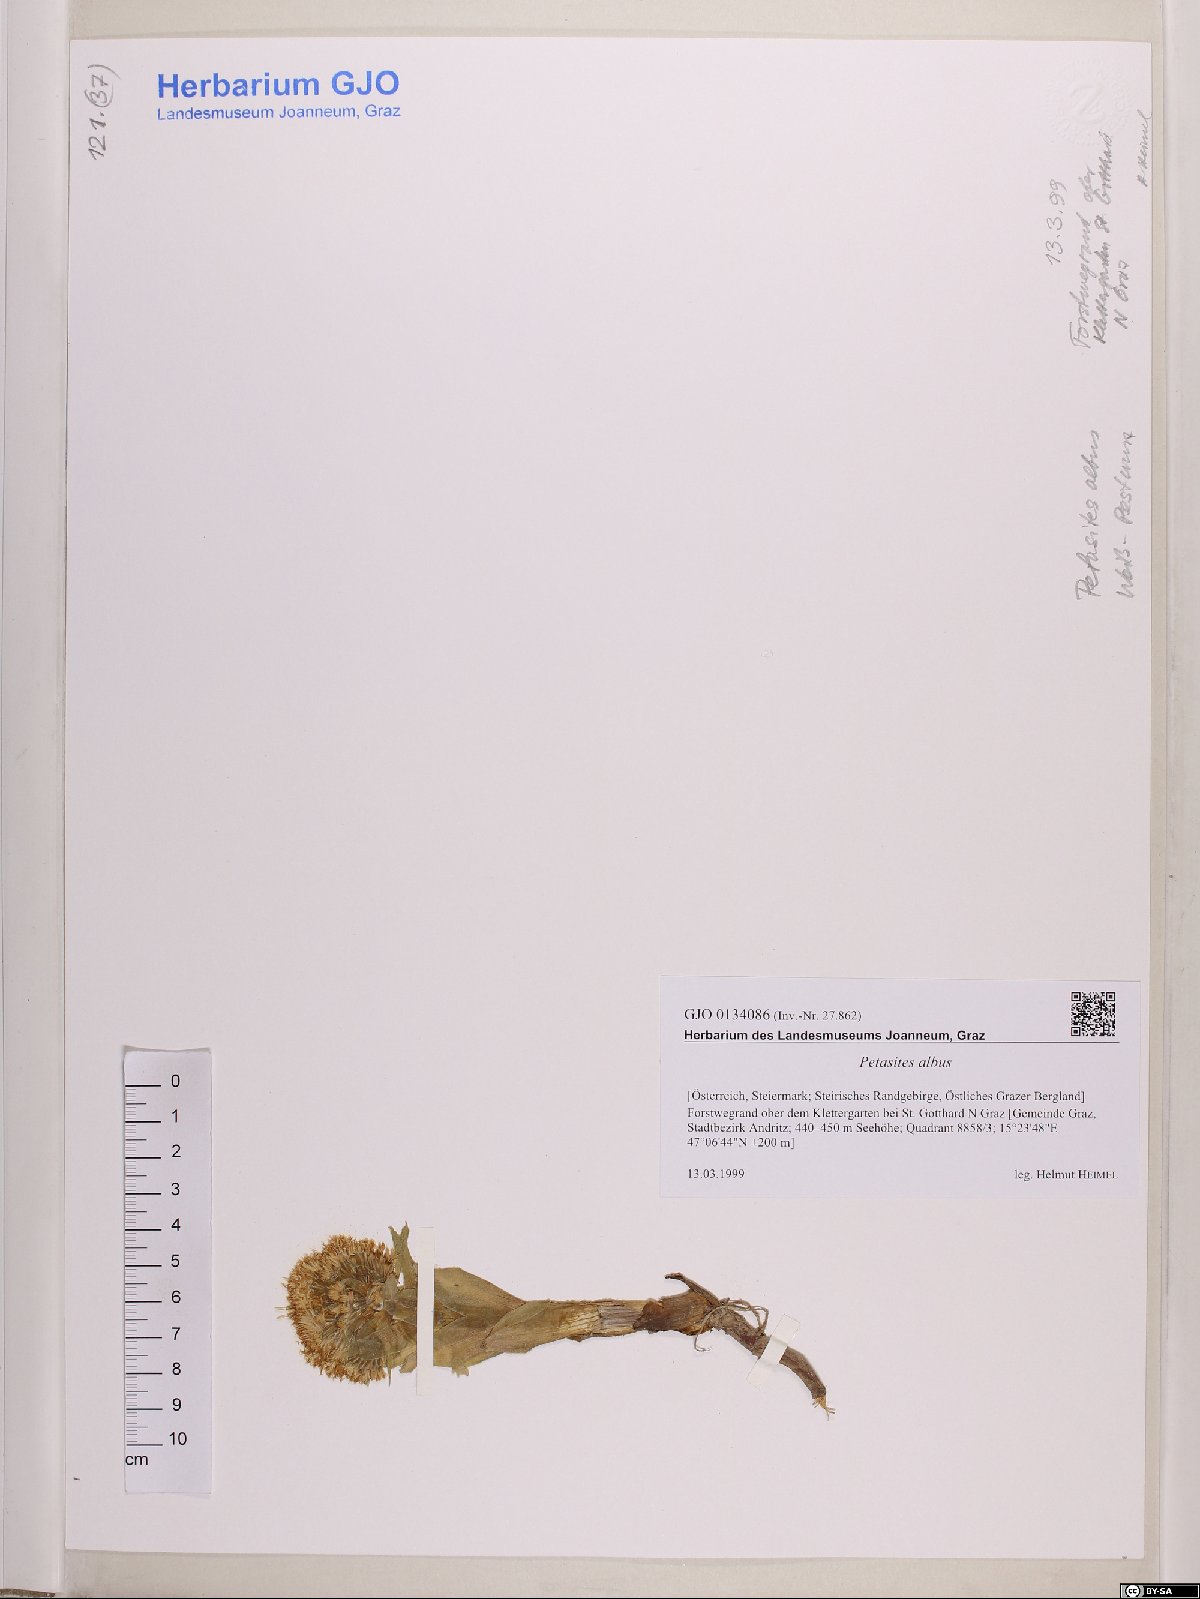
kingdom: Plantae
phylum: Tracheophyta
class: Magnoliopsida
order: Asterales
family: Asteraceae
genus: Petasites
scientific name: Petasites albus
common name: White butterbur
